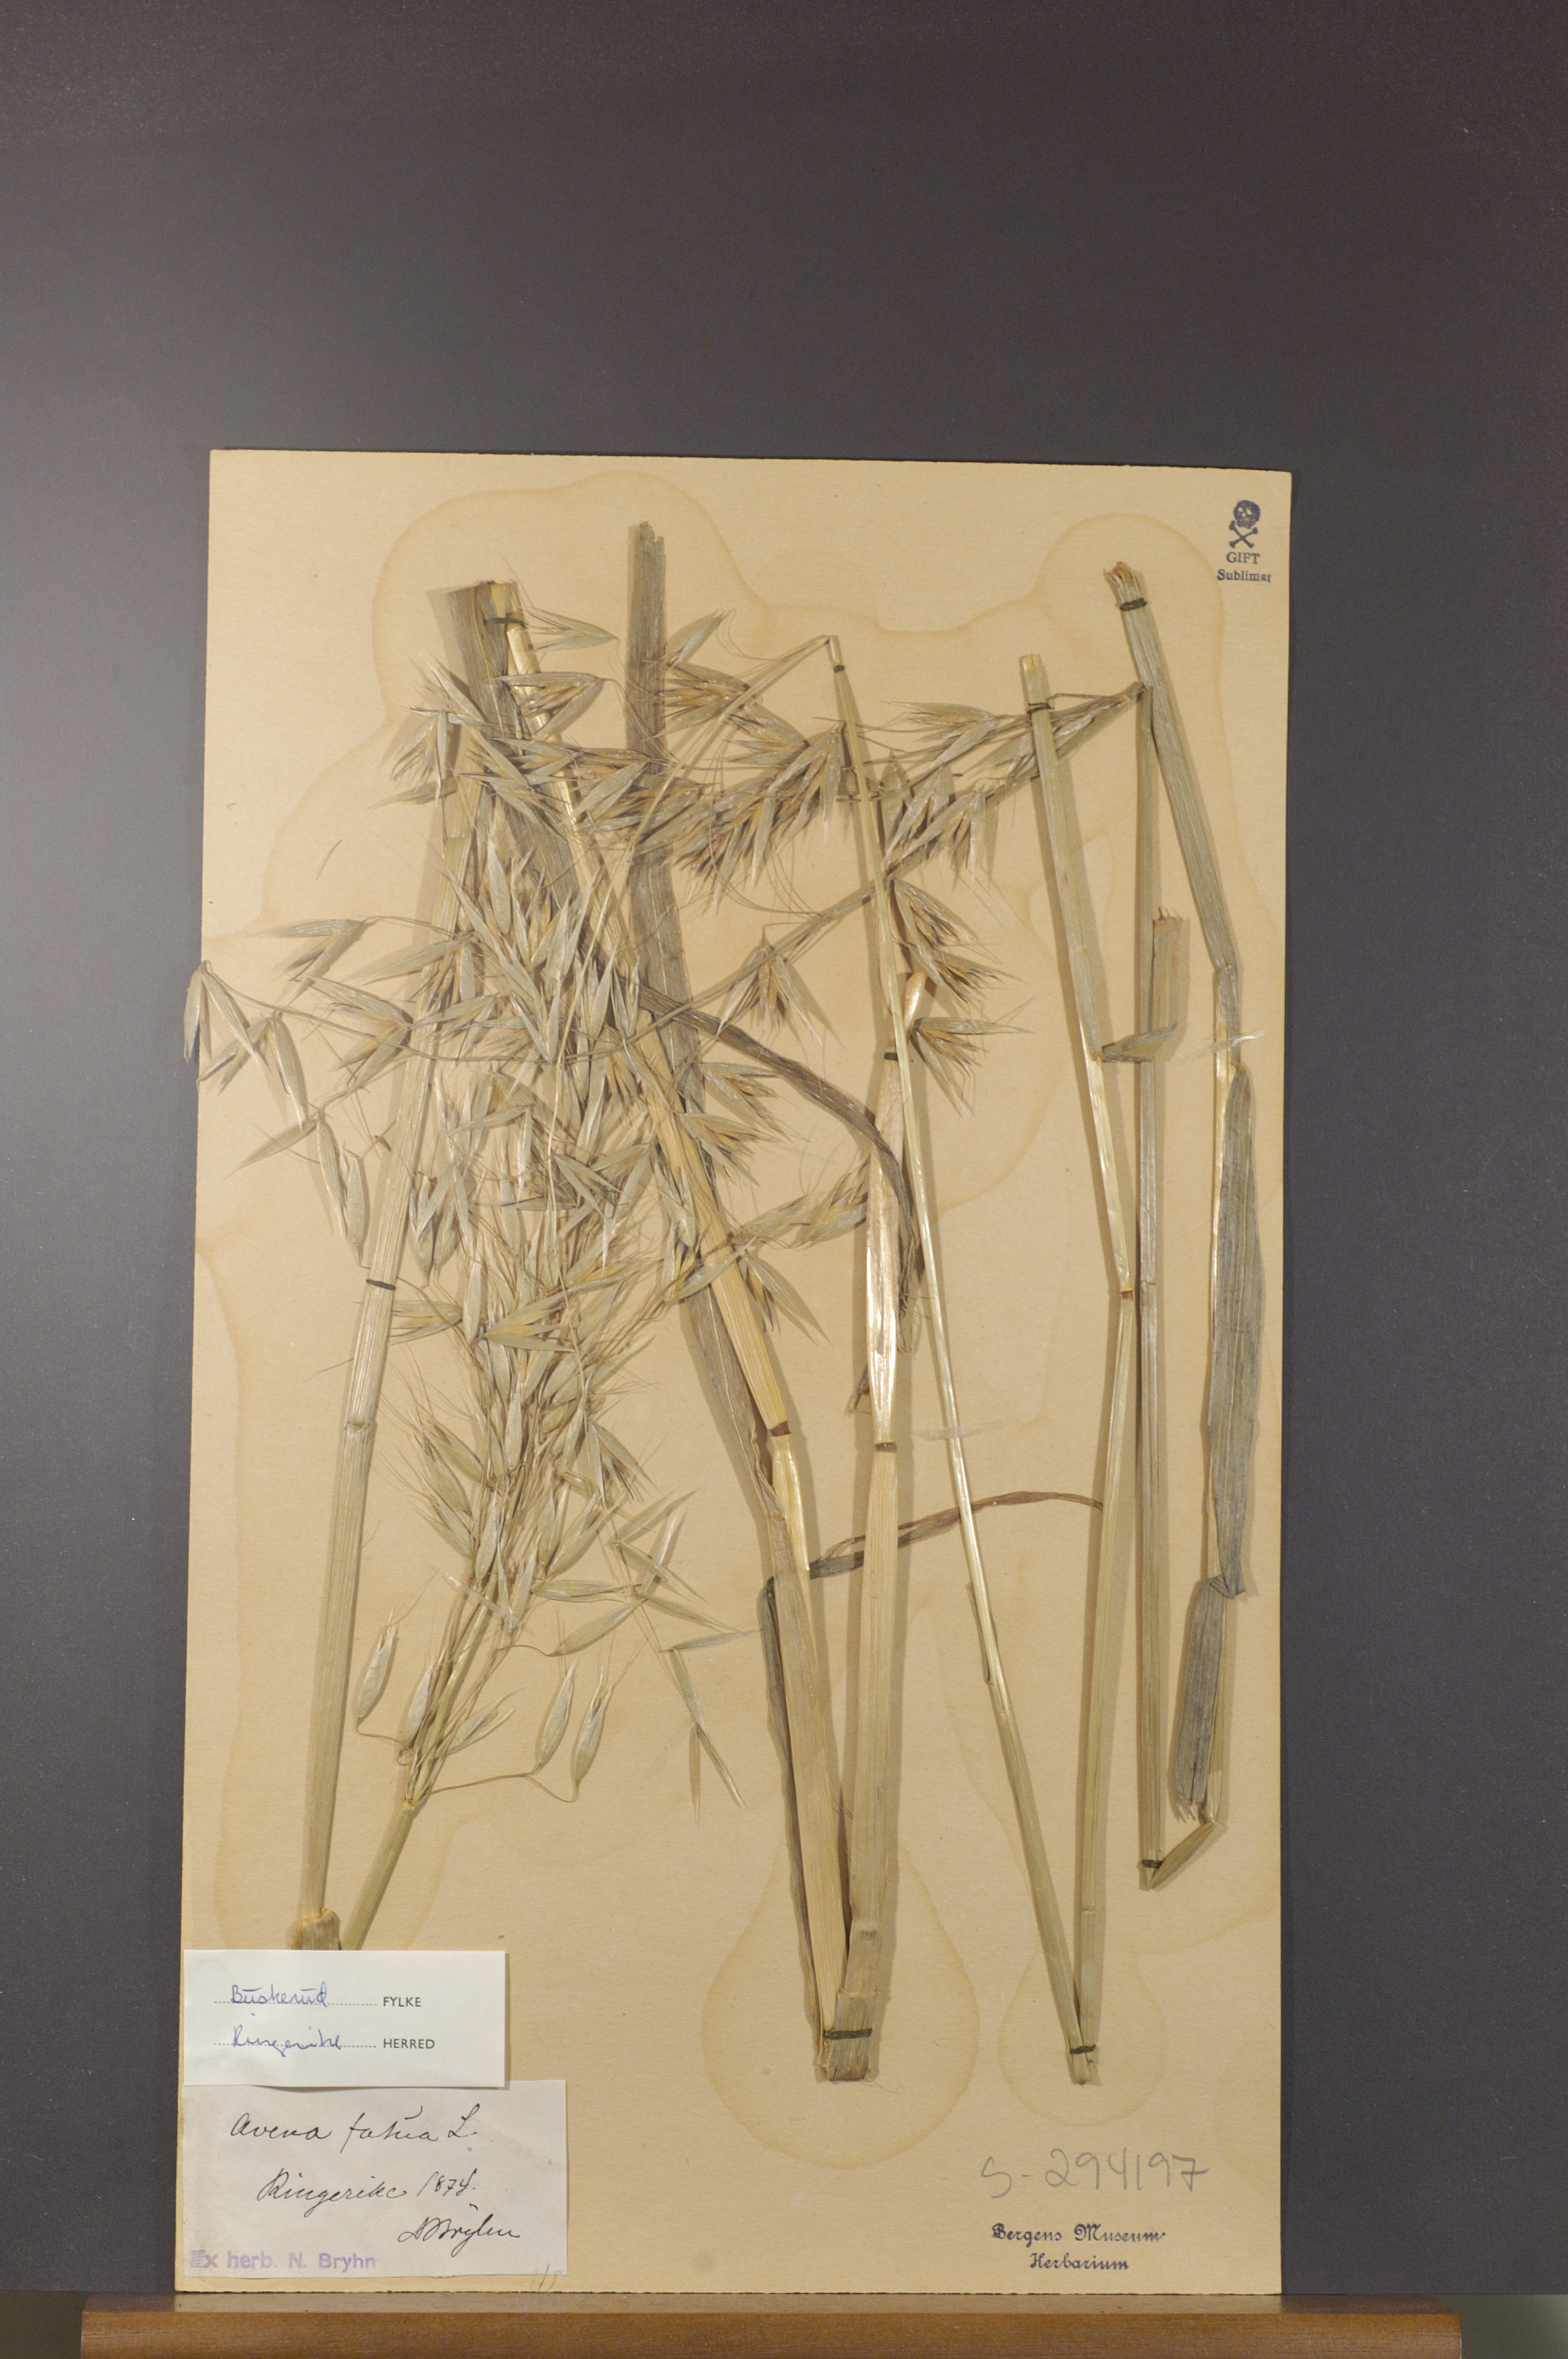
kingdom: Plantae
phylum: Tracheophyta
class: Liliopsida
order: Poales
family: Poaceae
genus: Avena
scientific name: Avena fatua
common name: Wild oat
